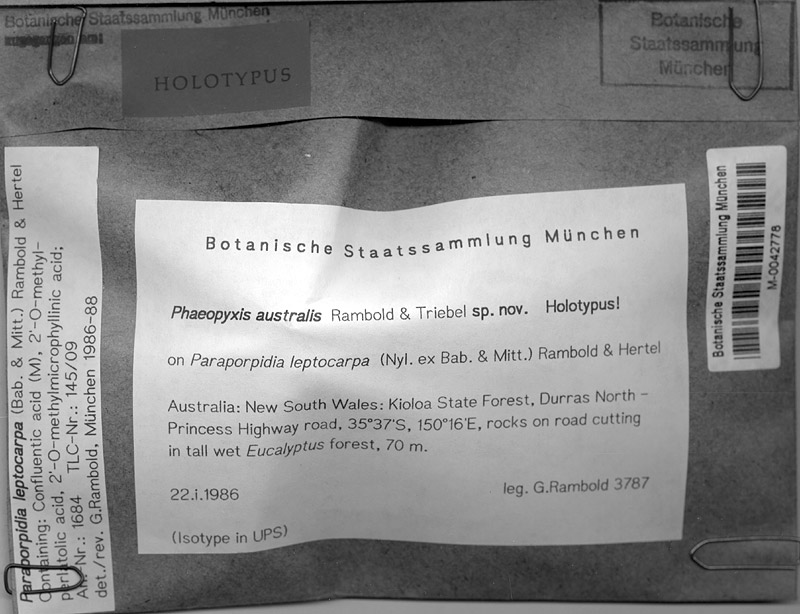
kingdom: Fungi
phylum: Ascomycota
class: Lecanoromycetes
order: Lecideales
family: Lecideaceae
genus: Paraporpidia
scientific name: Paraporpidia leptocarpa
